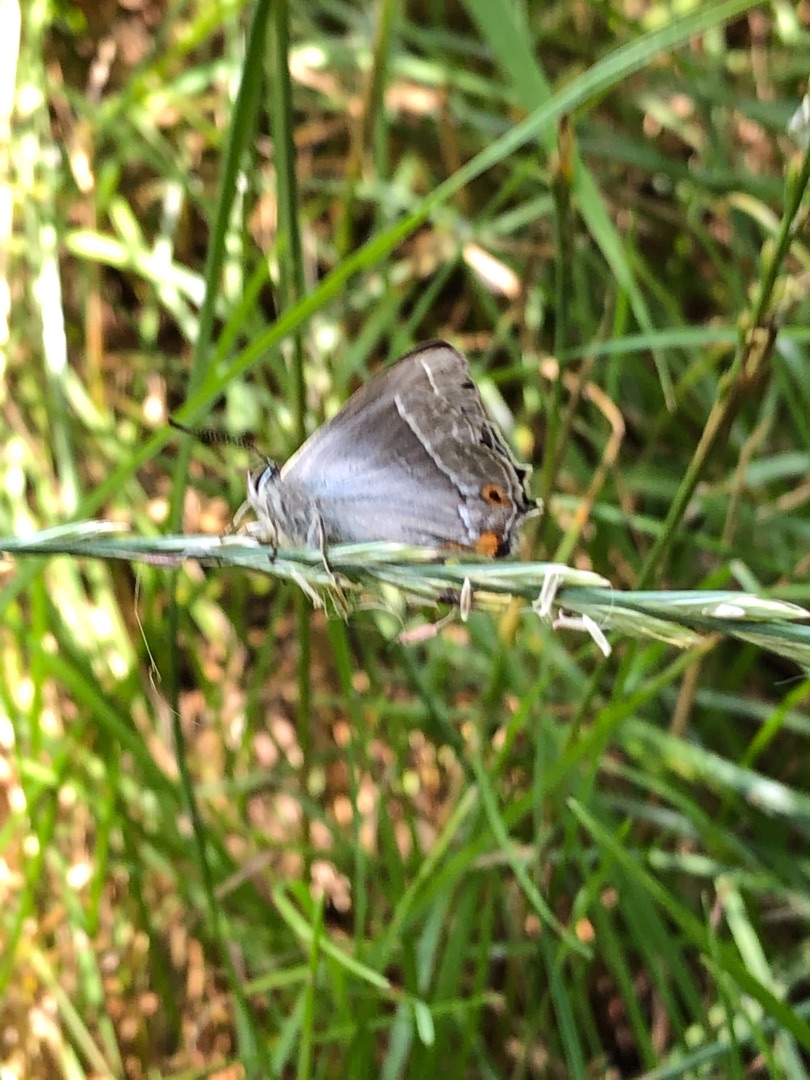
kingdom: Animalia
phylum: Arthropoda
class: Insecta
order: Lepidoptera
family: Lycaenidae
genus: Quercusia
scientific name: Quercusia quercus
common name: Blåhale
